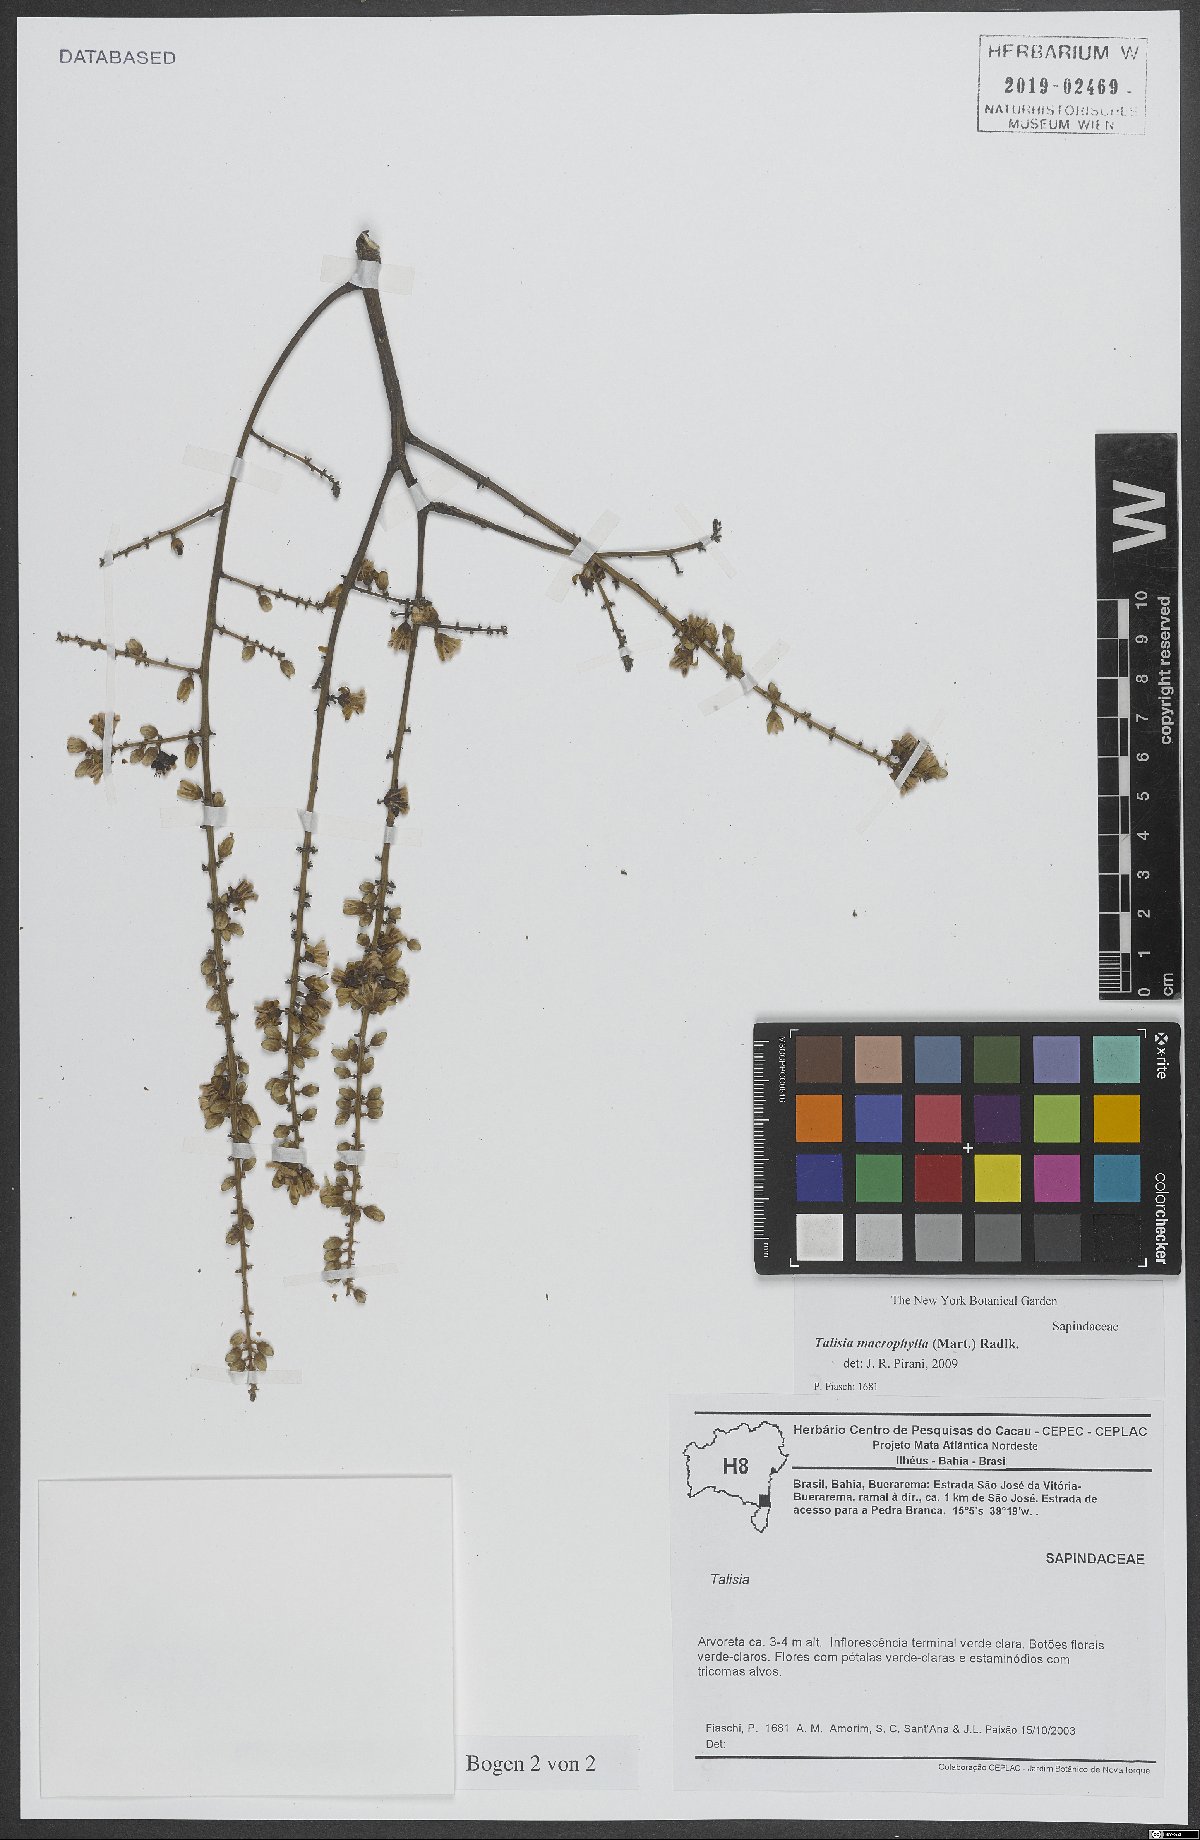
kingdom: Plantae
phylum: Tracheophyta
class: Magnoliopsida
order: Sapindales
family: Sapindaceae
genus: Talisia
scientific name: Talisia macrophylla
